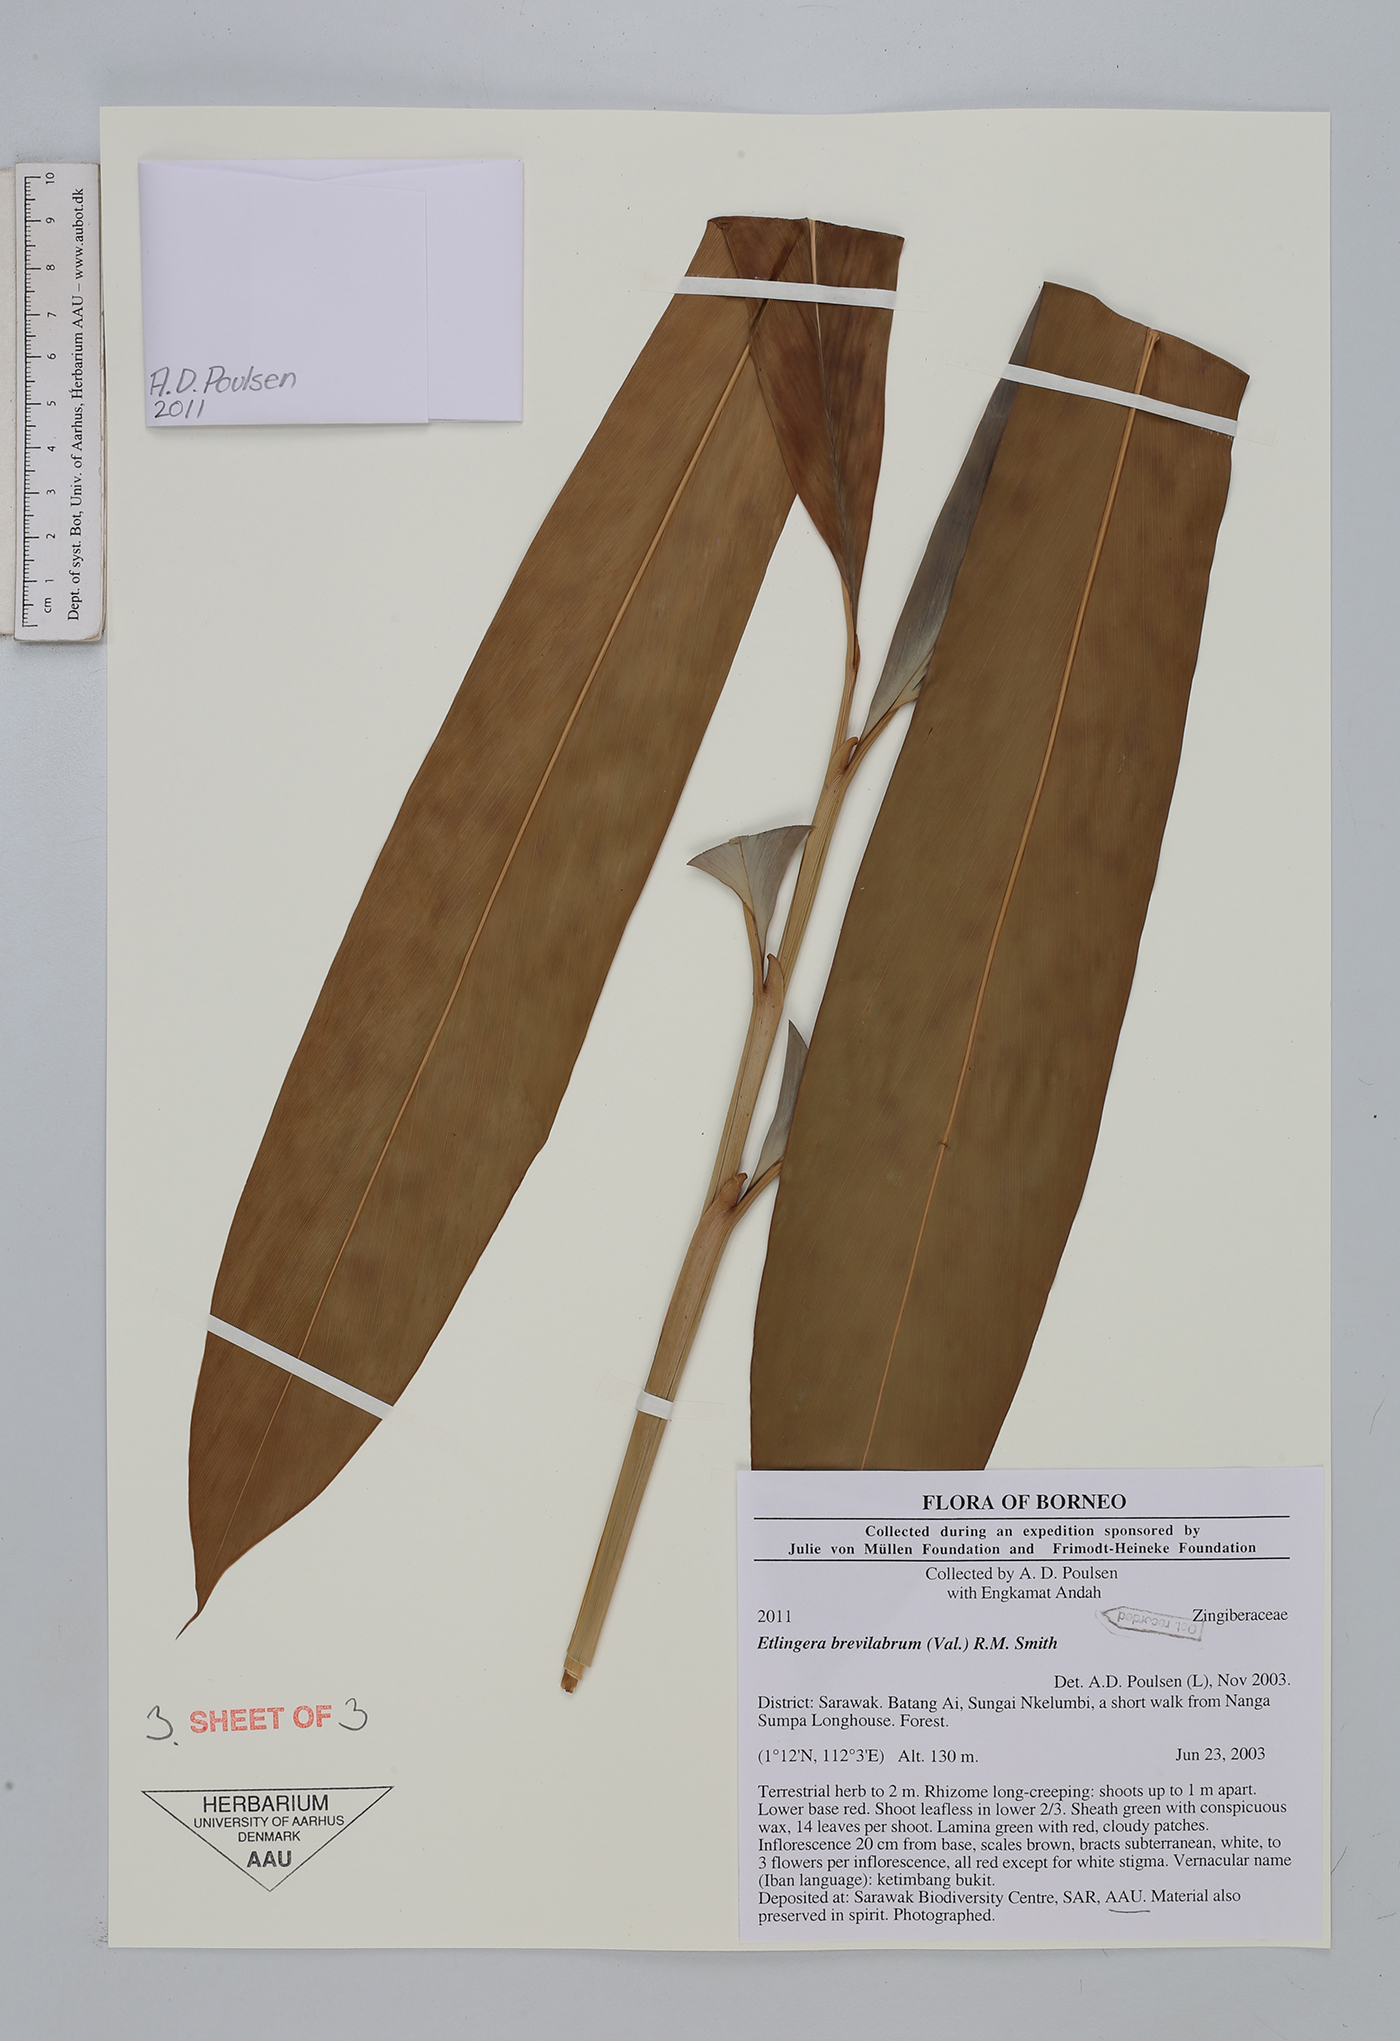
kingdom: Plantae
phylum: Tracheophyta
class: Liliopsida
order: Zingiberales
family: Zingiberaceae
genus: Etlingera
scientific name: Etlingera brevilabrum
